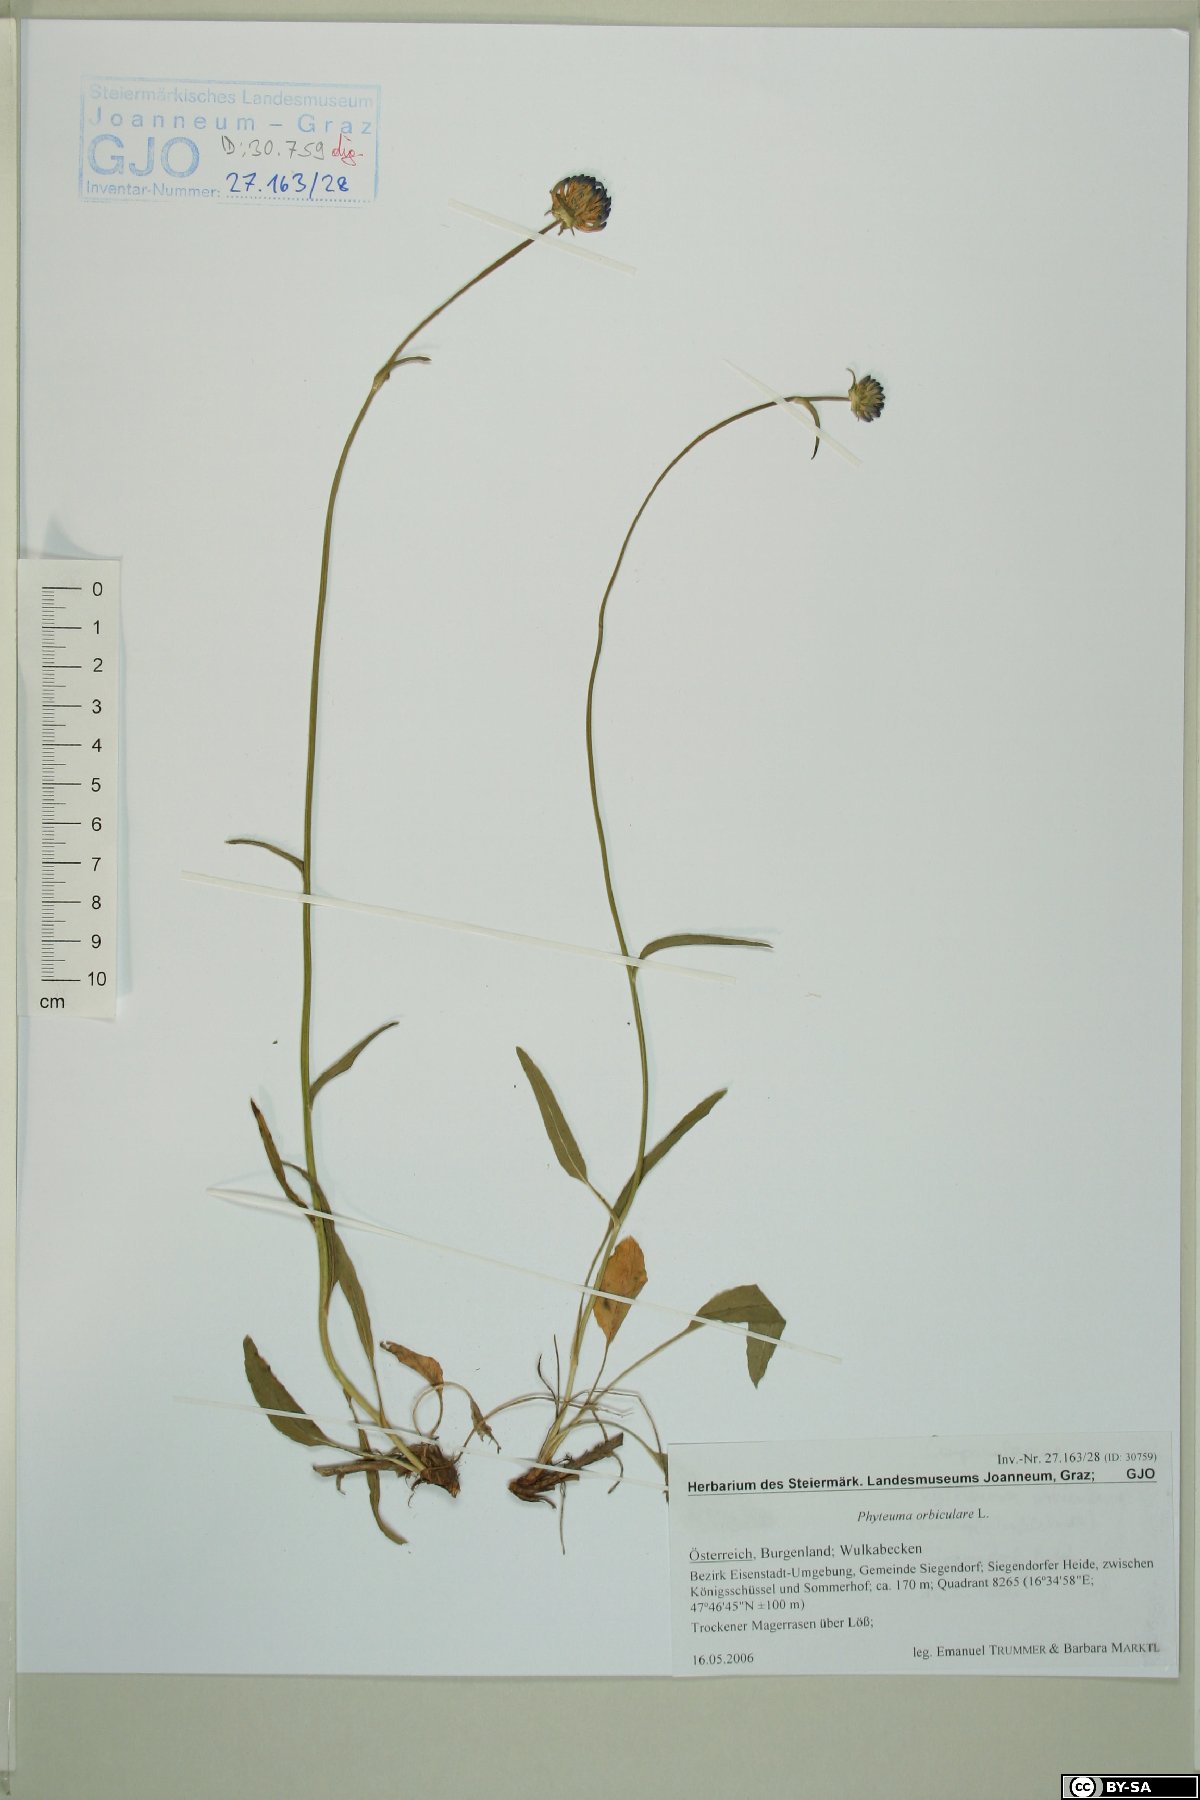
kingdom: Plantae
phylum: Tracheophyta
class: Magnoliopsida
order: Asterales
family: Campanulaceae
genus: Phyteuma
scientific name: Phyteuma orbiculare
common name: Round-headed rampion
